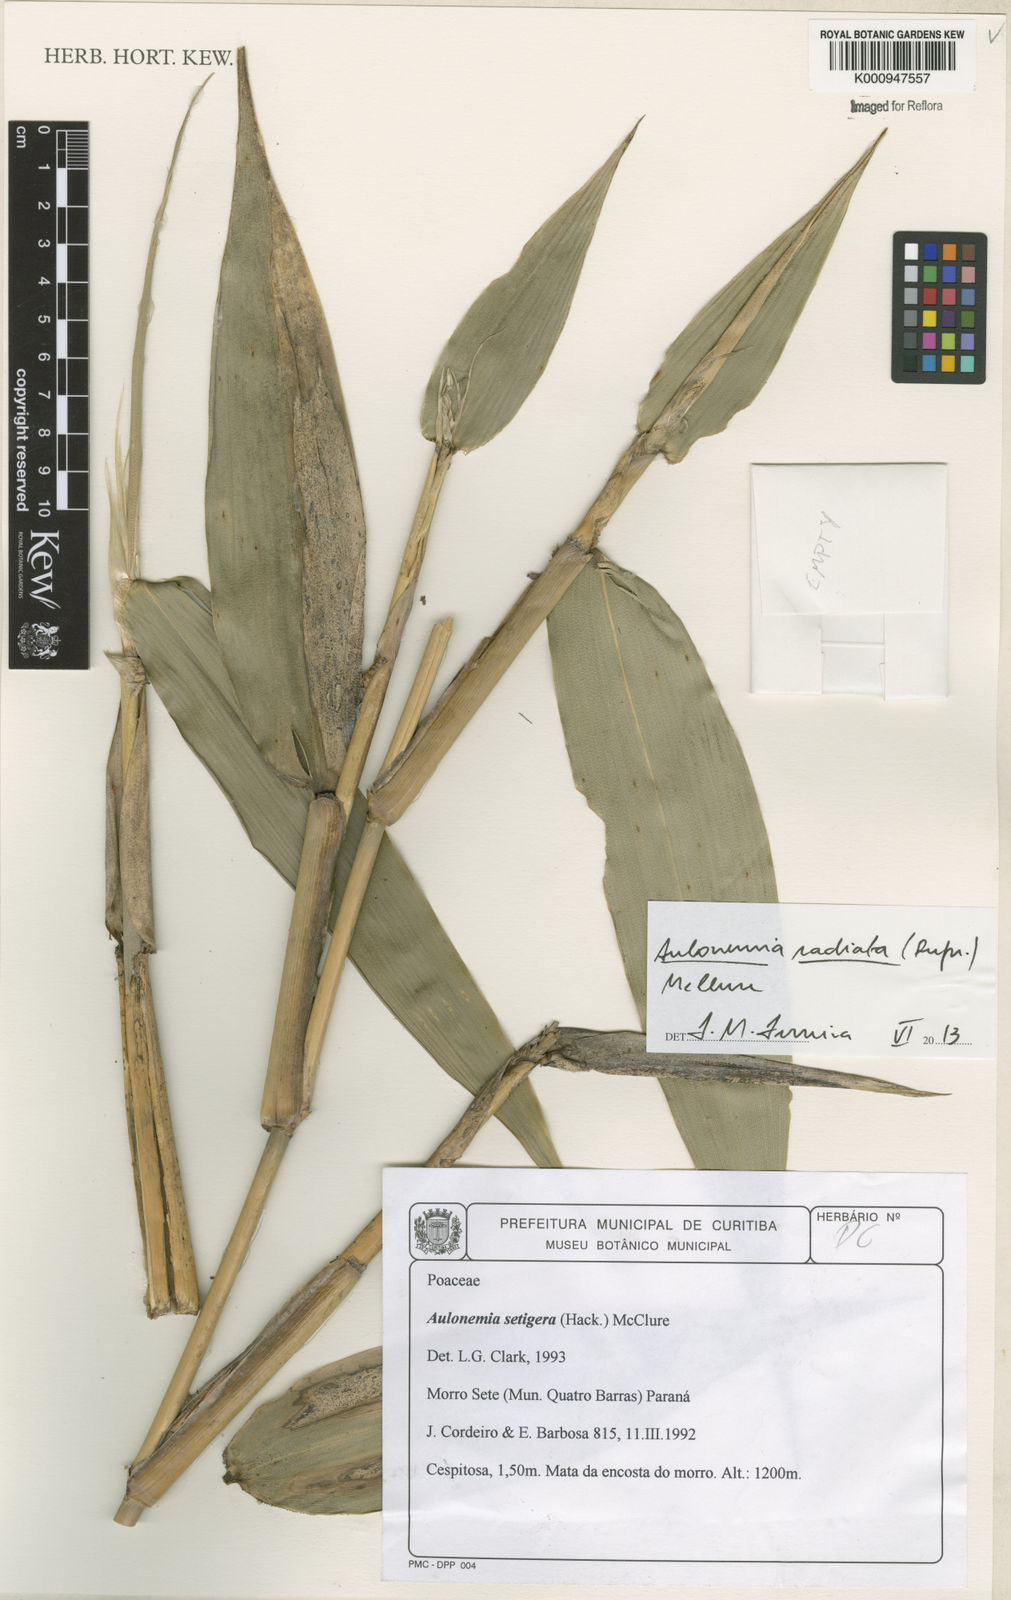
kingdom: Plantae
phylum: Tracheophyta
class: Liliopsida
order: Poales
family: Poaceae
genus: Aulonemia
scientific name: Aulonemia setigera
